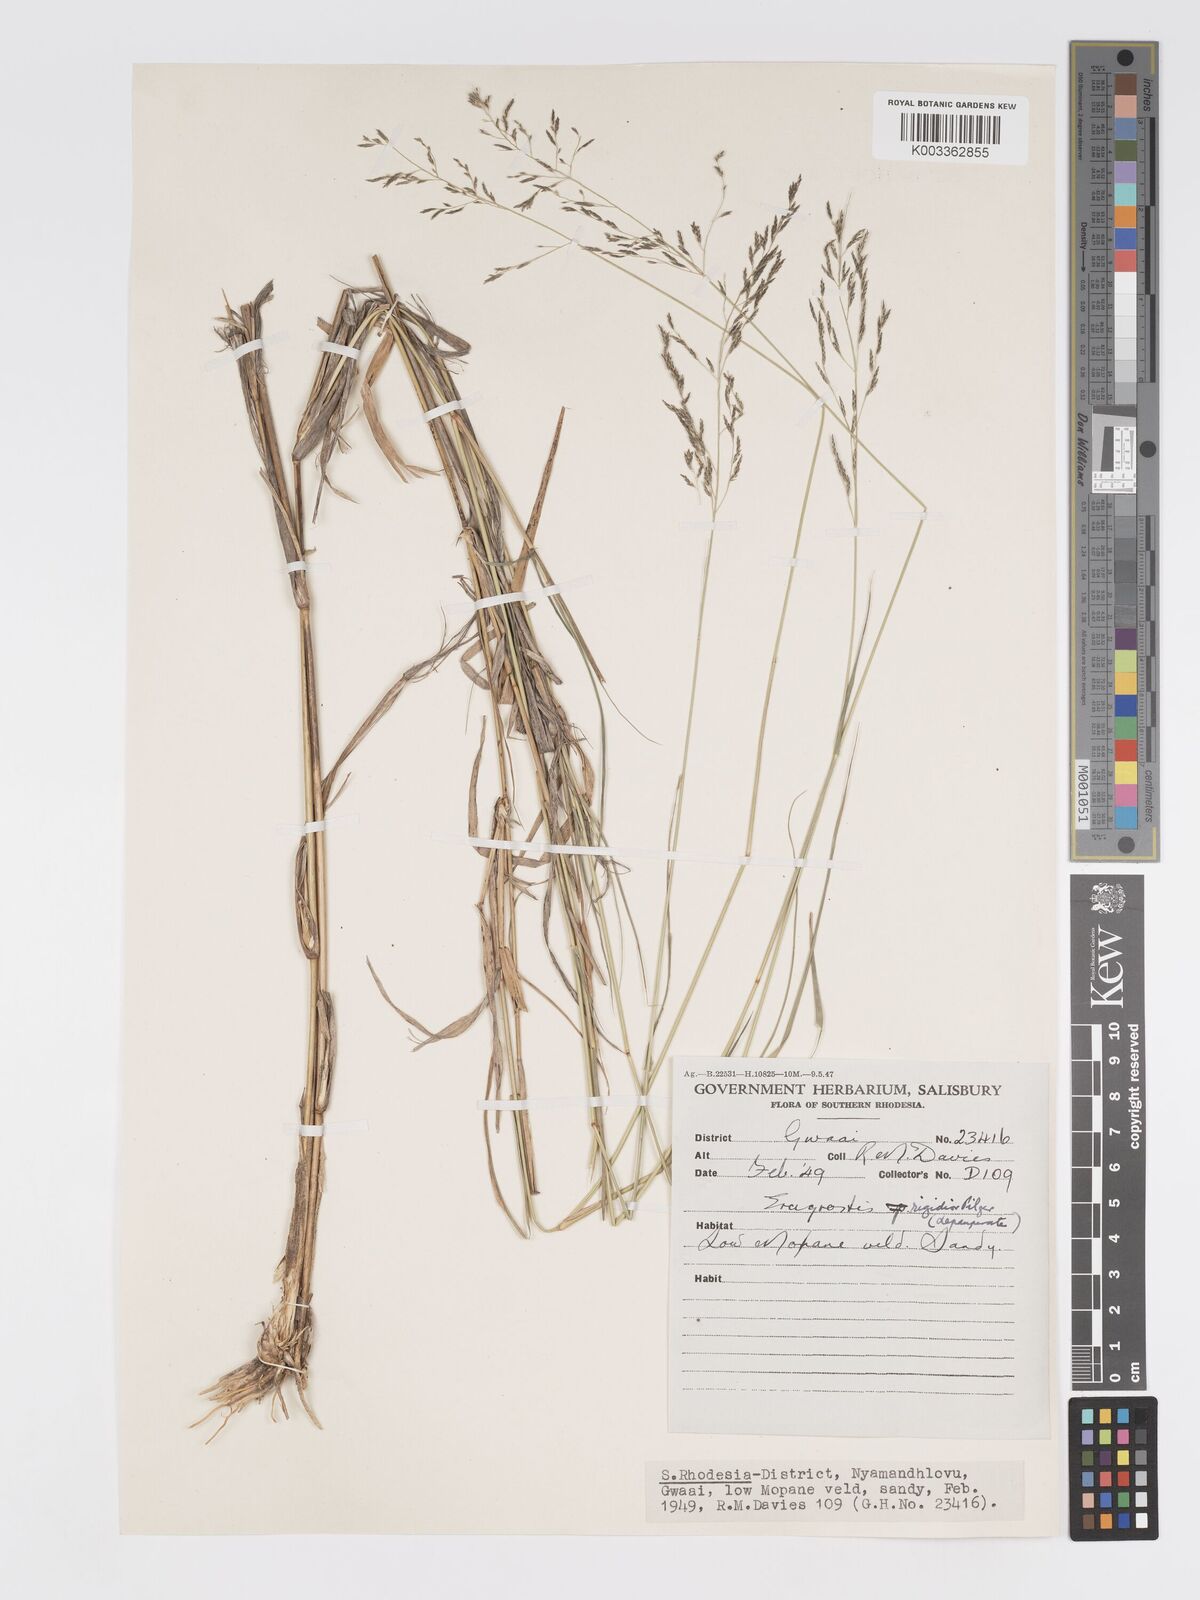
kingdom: Plantae
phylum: Tracheophyta
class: Liliopsida
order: Poales
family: Poaceae
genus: Eragrostis
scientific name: Eragrostis cylindriflora
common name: Cylinderflower lovegrass
